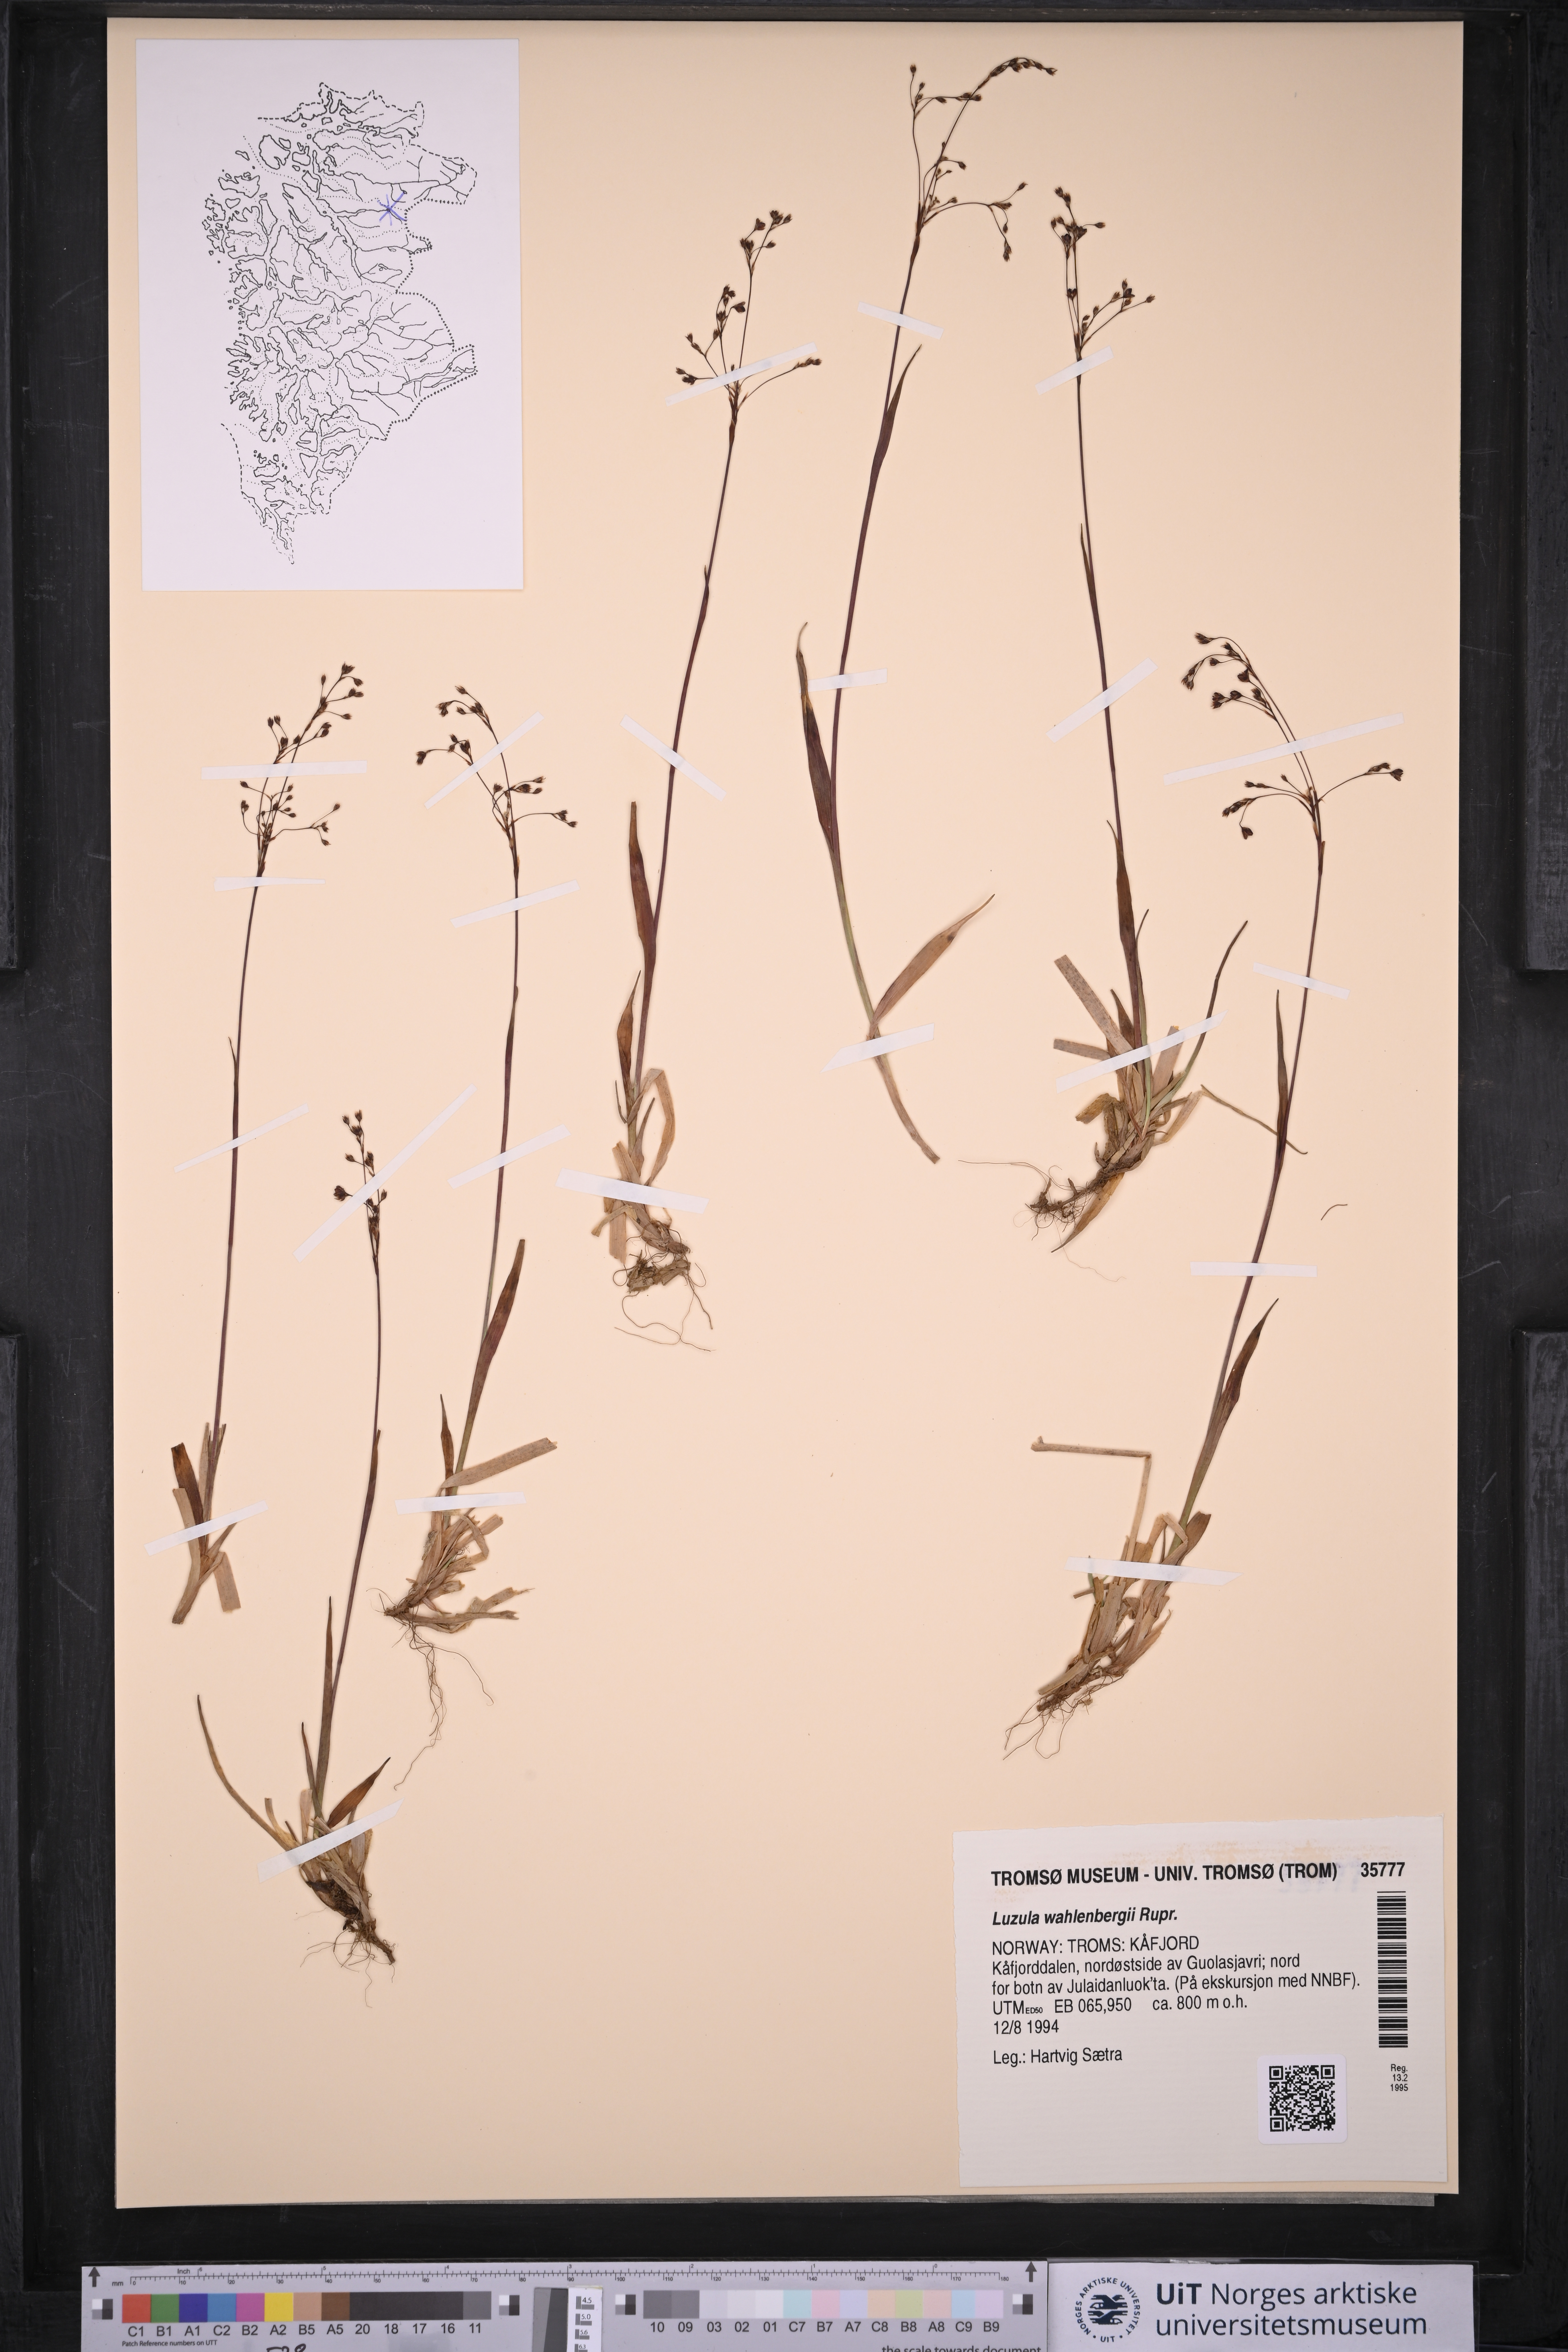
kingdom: Plantae
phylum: Tracheophyta
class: Liliopsida
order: Poales
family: Juncaceae
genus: Luzula
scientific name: Luzula wahlenbergii
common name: Wahlenberg's wood-rush
